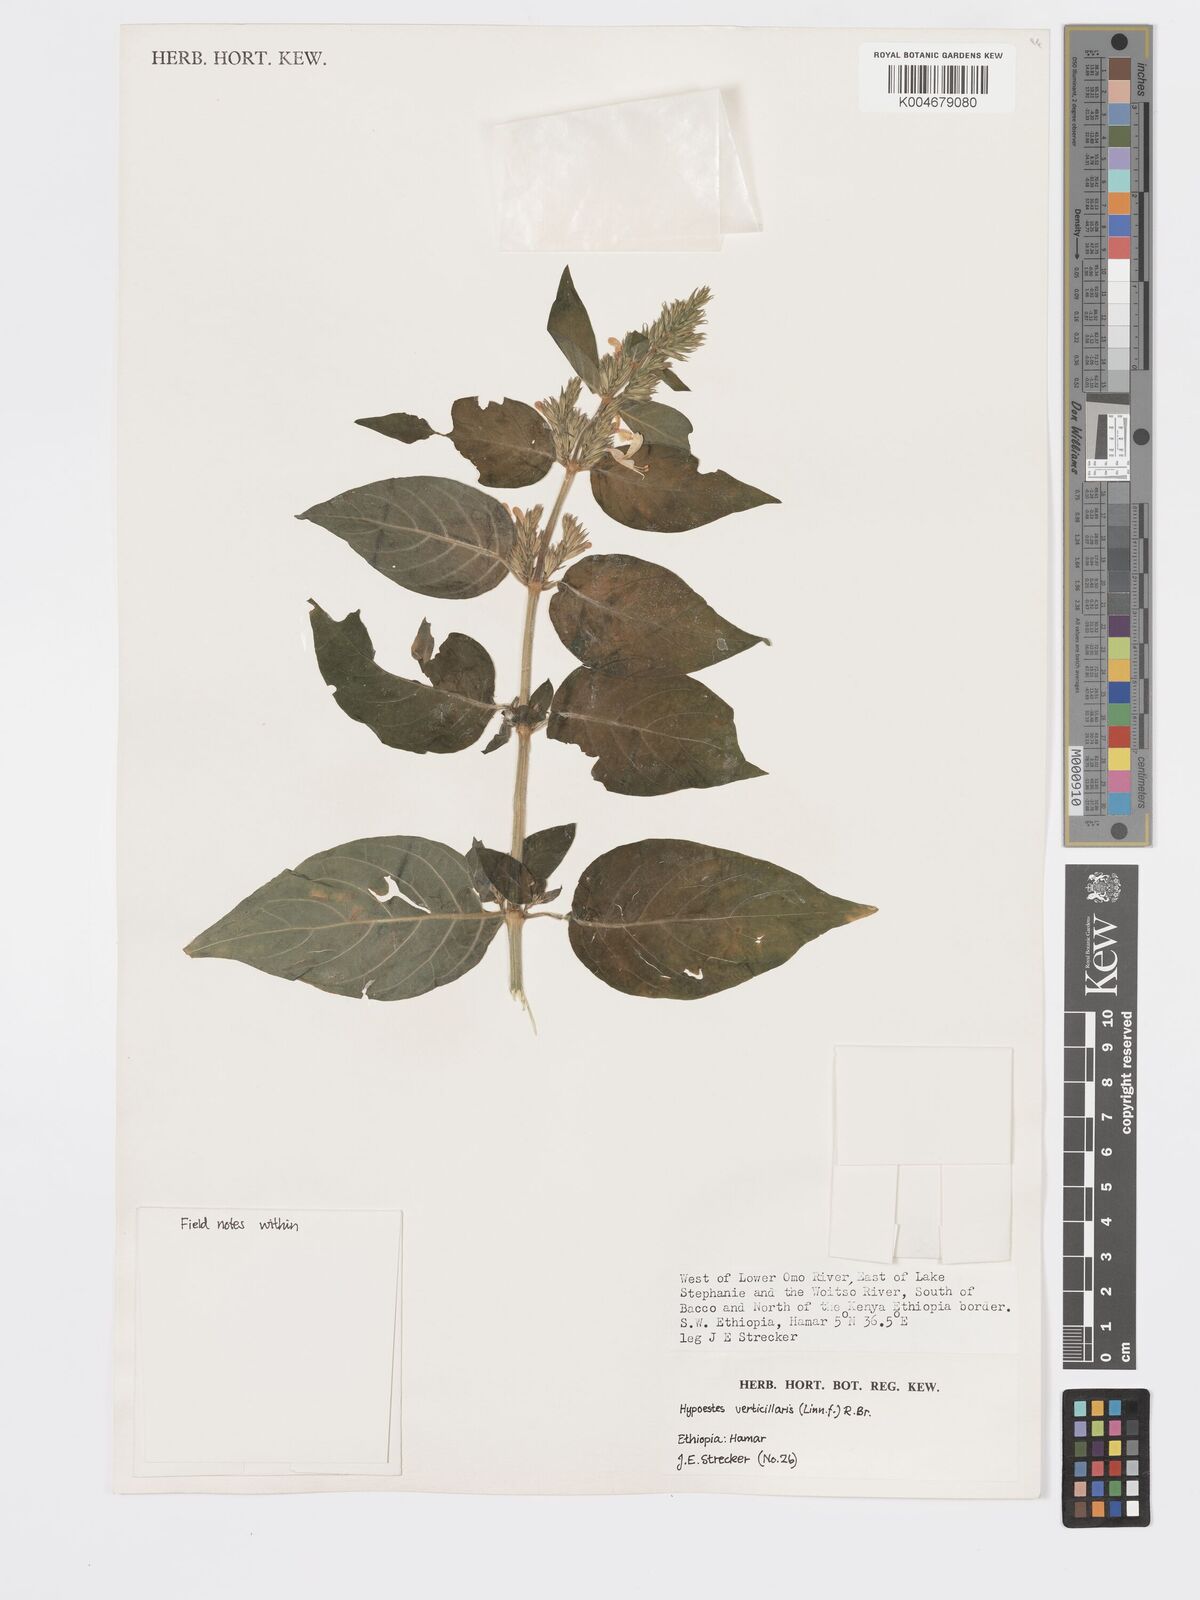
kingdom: Plantae
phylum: Tracheophyta
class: Magnoliopsida
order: Lamiales
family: Acanthaceae
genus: Hypoestes
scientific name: Hypoestes forskaolii
